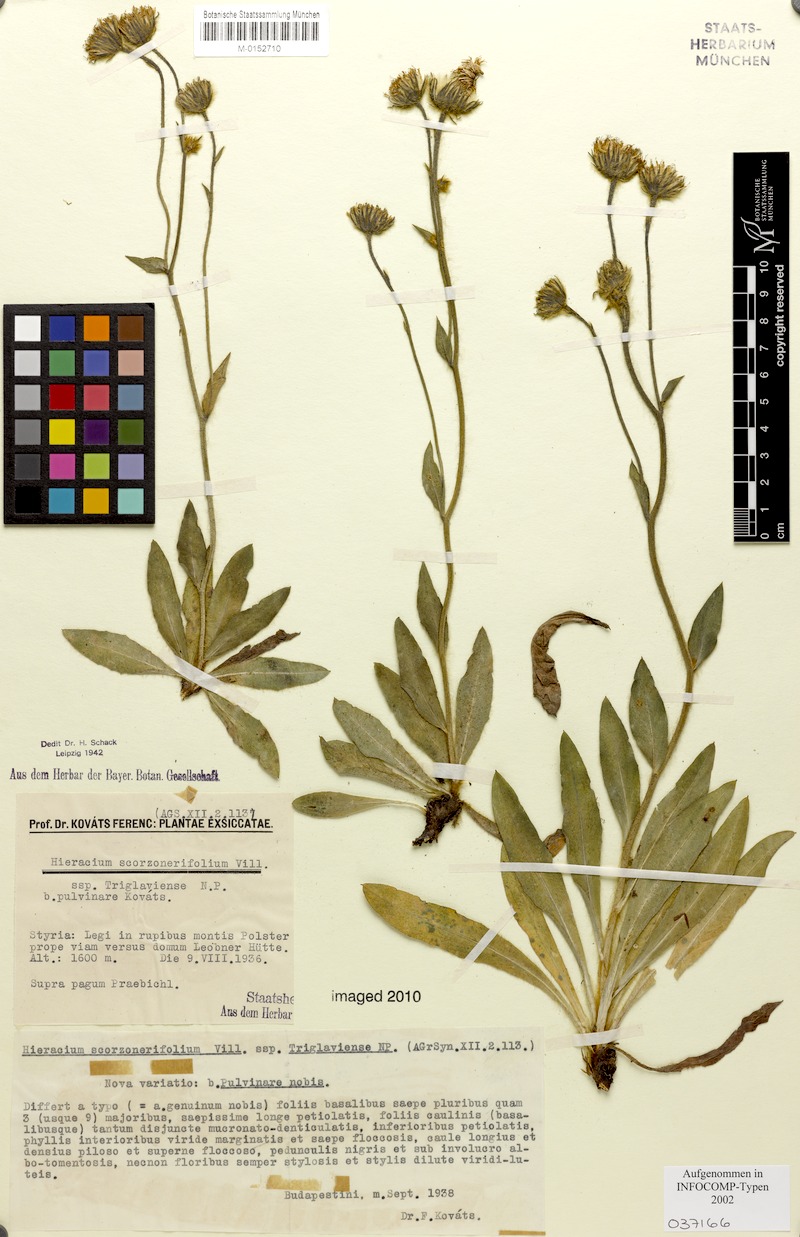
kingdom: Plantae
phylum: Tracheophyta
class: Magnoliopsida
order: Asterales
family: Asteraceae
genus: Hieracium
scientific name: Hieracium scorzonerifolium
